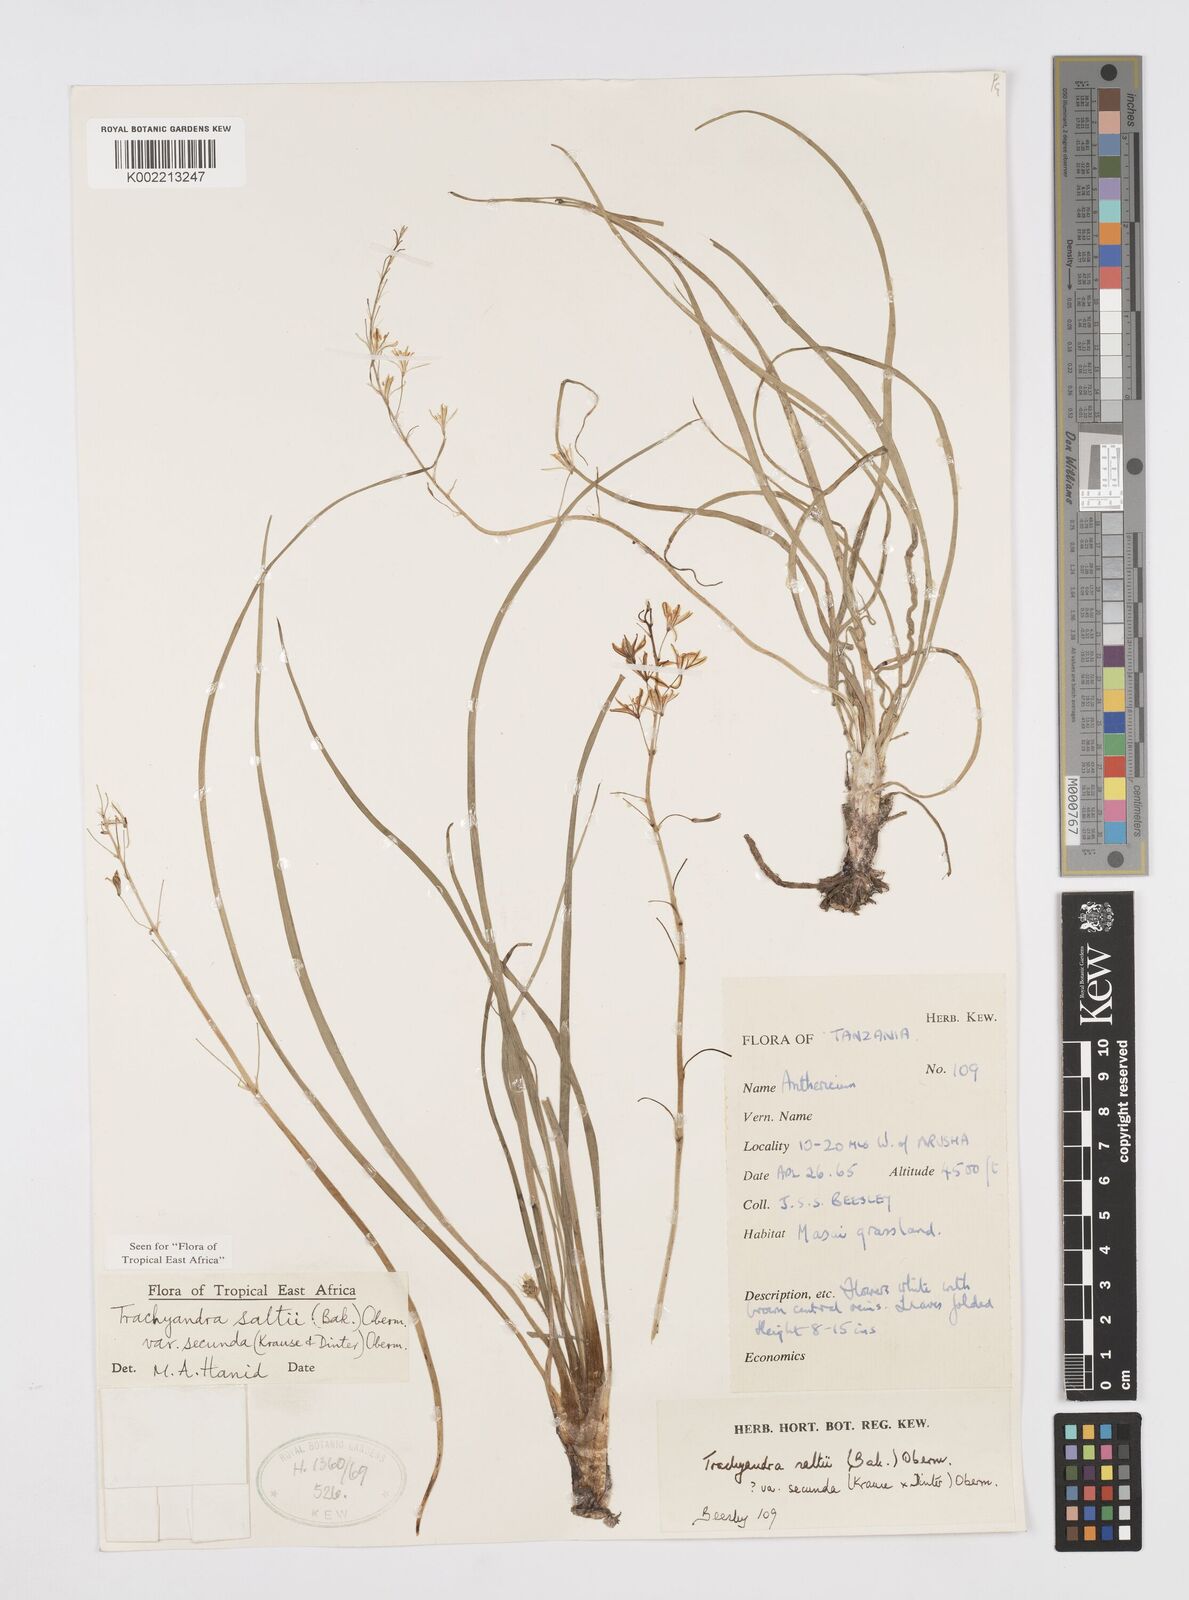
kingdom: Plantae
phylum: Tracheophyta
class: Liliopsida
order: Asparagales
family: Asphodelaceae
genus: Trachyandra
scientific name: Trachyandra saltii
